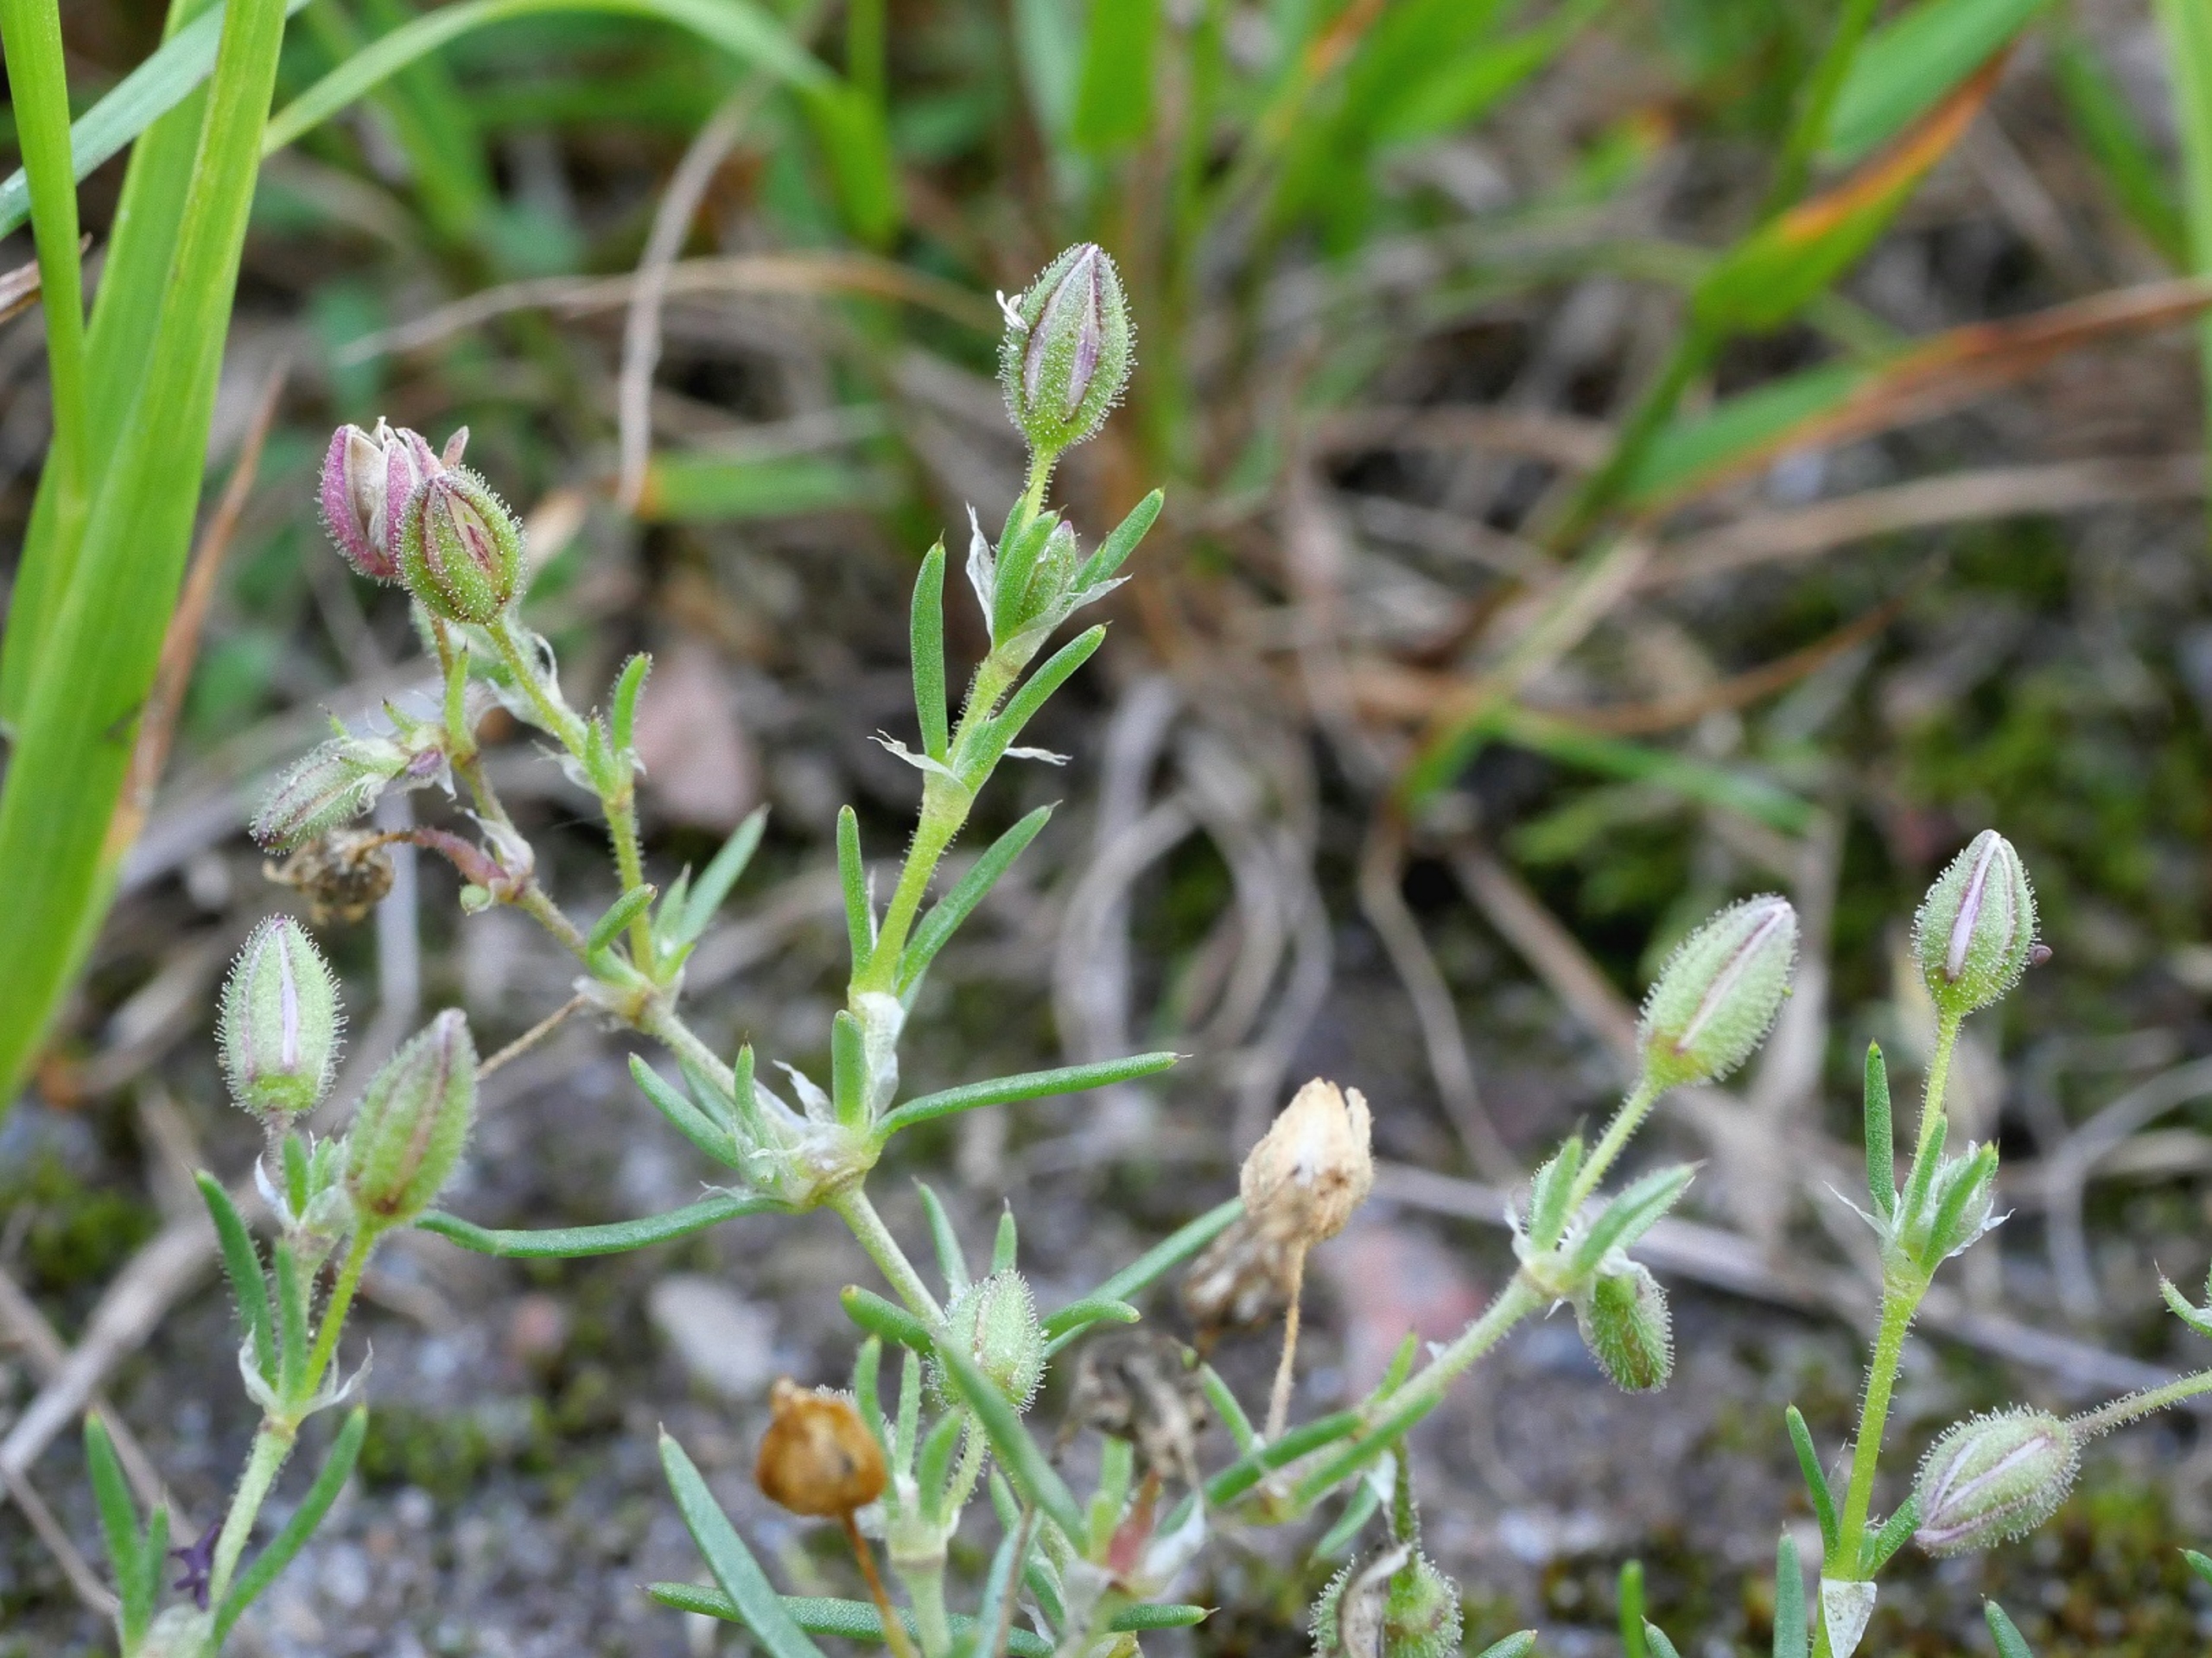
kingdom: Plantae
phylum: Tracheophyta
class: Magnoliopsida
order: Caryophyllales
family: Caryophyllaceae
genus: Spergularia
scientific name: Spergularia rubra
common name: Mark-hindeknæ
